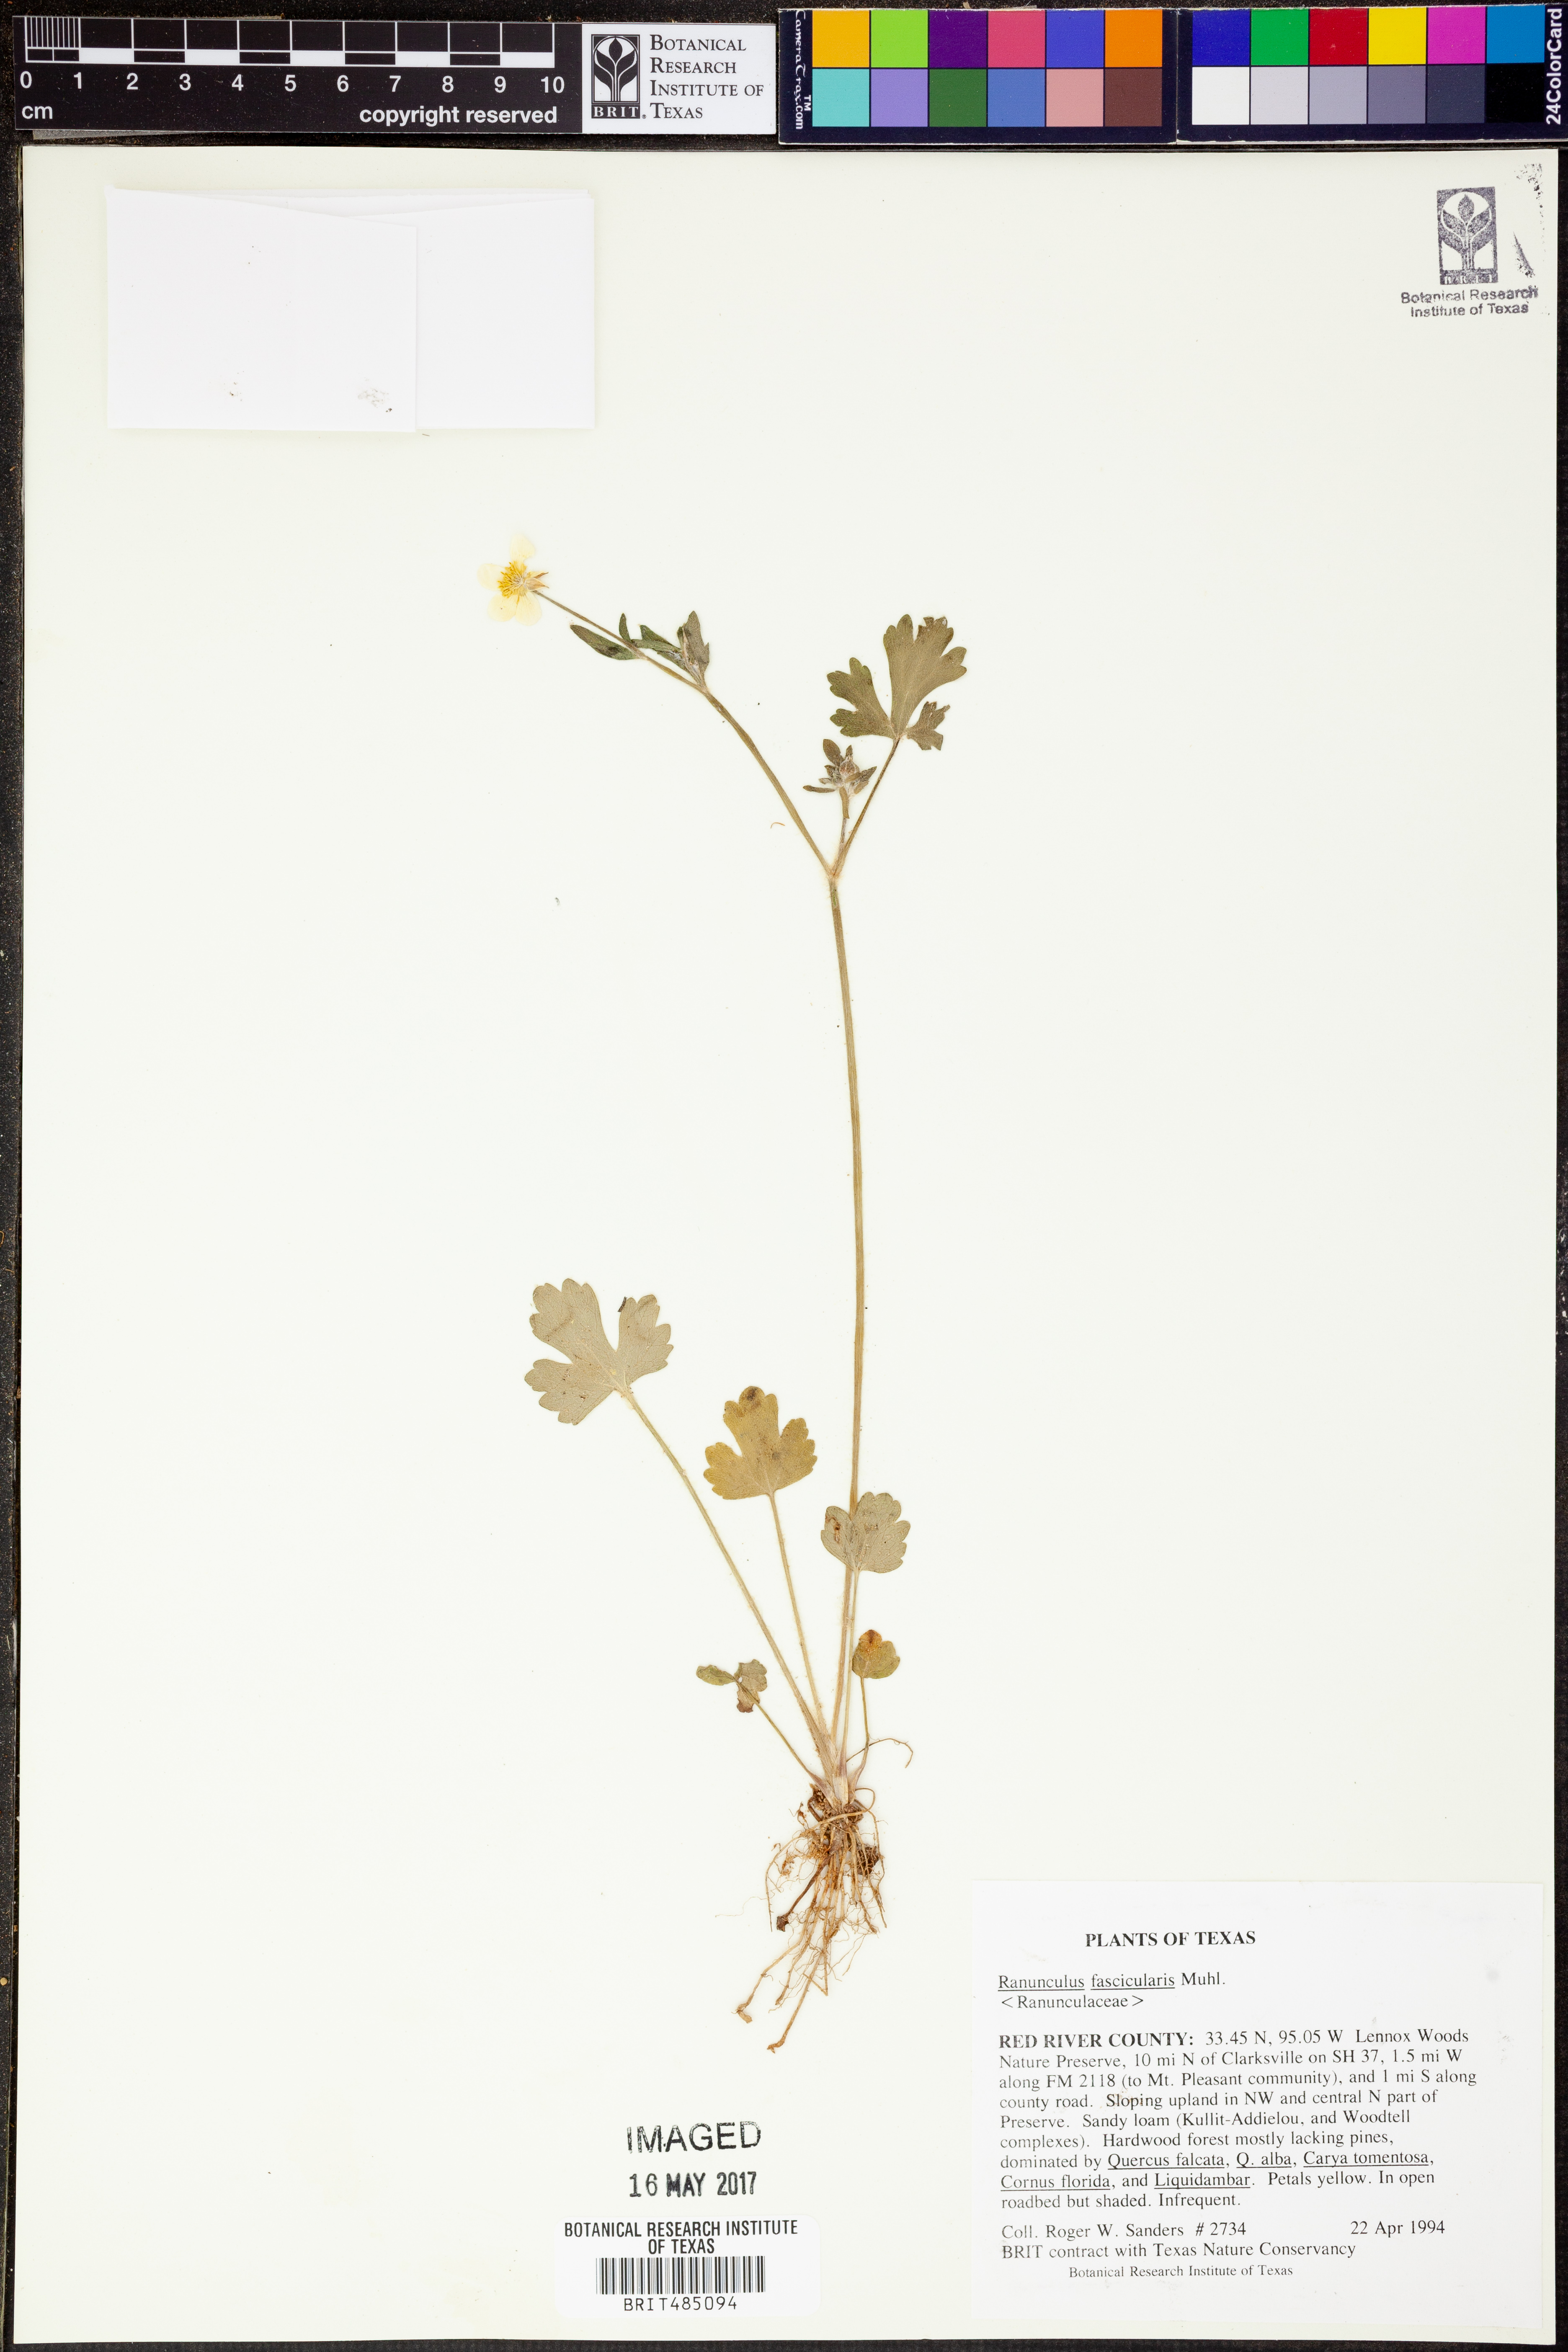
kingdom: Plantae
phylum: Tracheophyta
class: Magnoliopsida
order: Ranunculales
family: Ranunculaceae
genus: Ranunculus
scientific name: Ranunculus fascicularis
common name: Early buttercup
